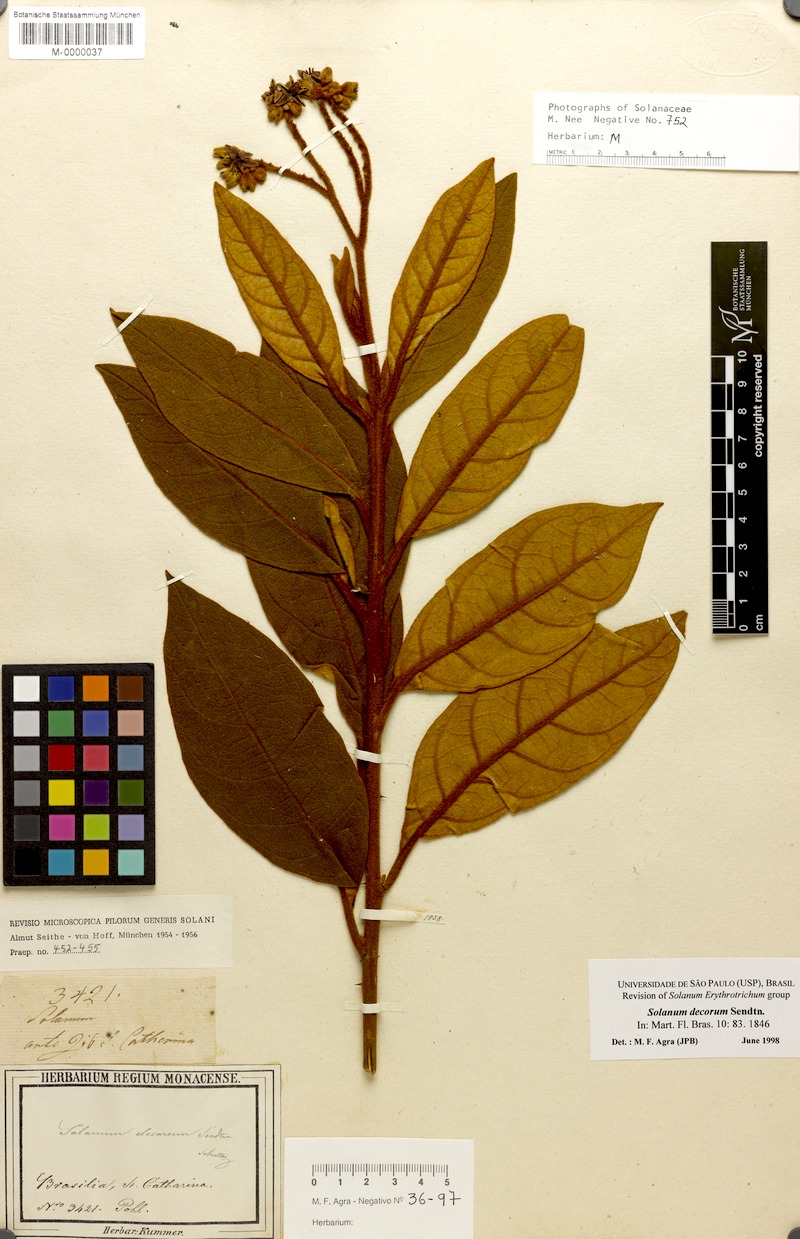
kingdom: Plantae
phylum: Tracheophyta
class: Magnoliopsida
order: Solanales
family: Solanaceae
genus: Solanum
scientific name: Solanum decorum
